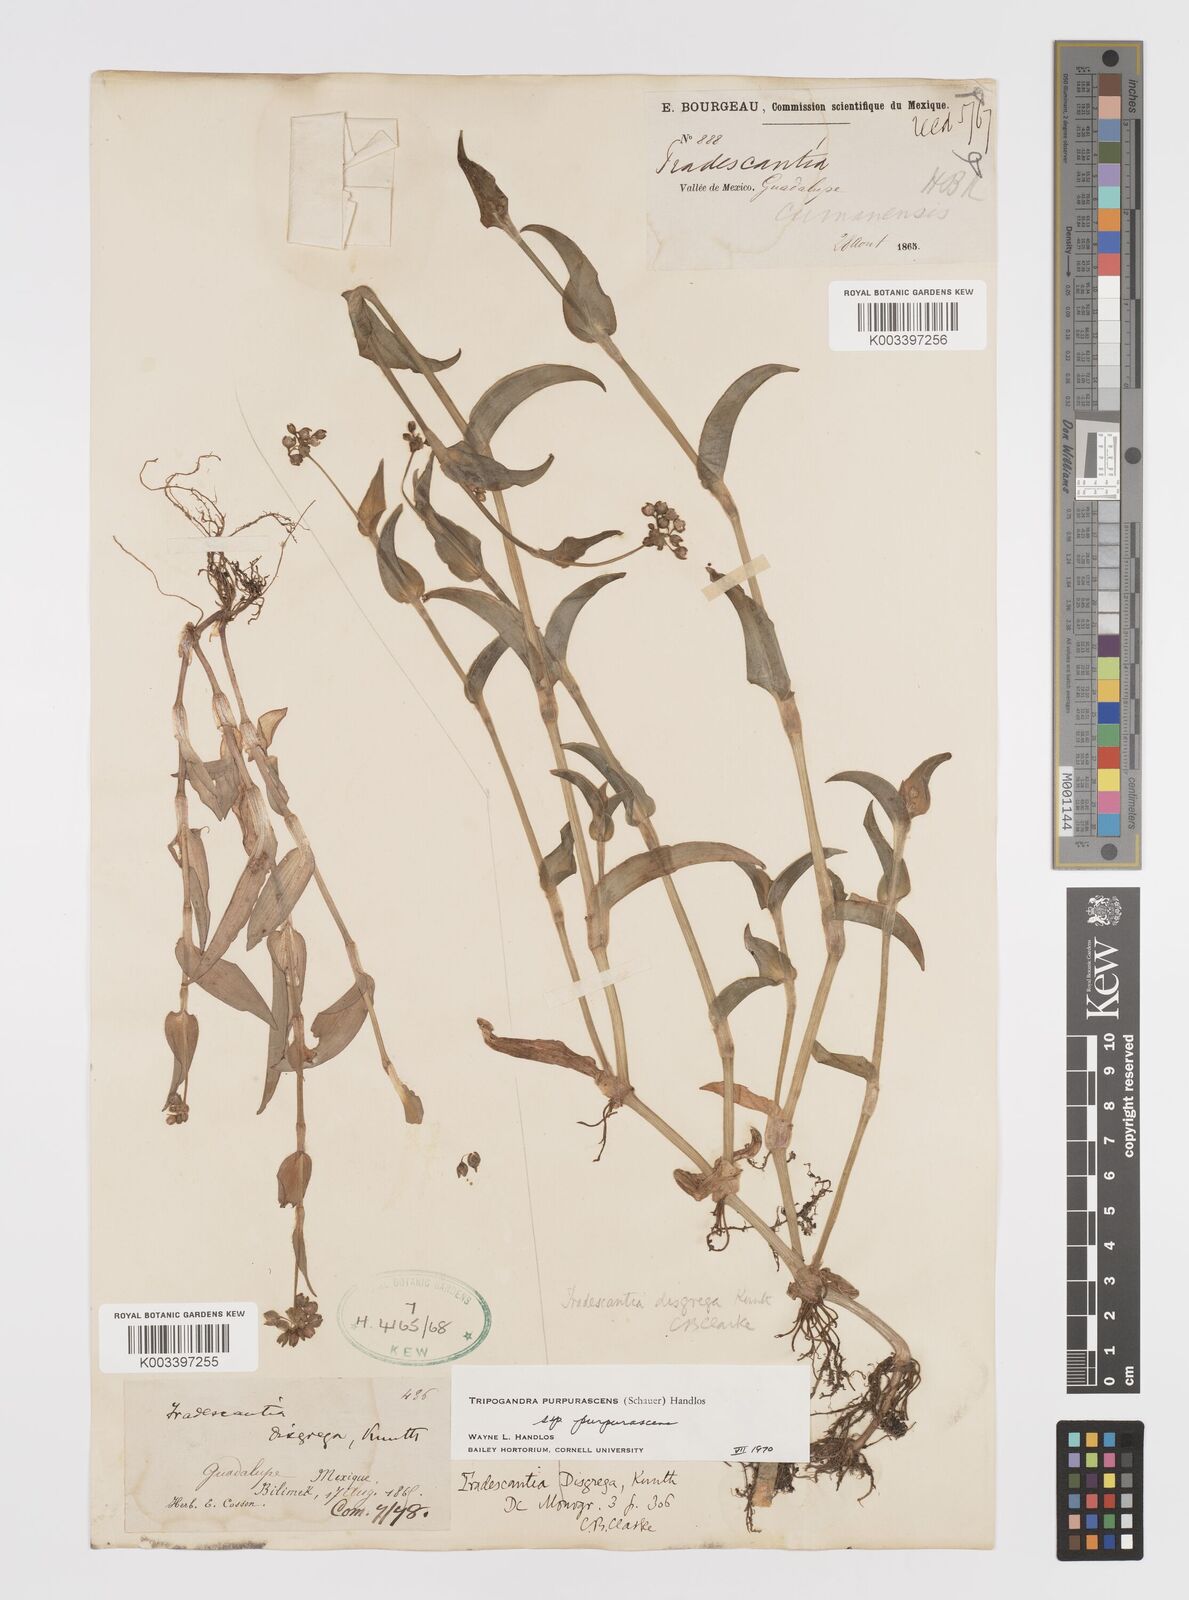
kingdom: Plantae
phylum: Tracheophyta
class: Liliopsida
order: Commelinales
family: Commelinaceae
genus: Callisia
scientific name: Callisia purpurascens
